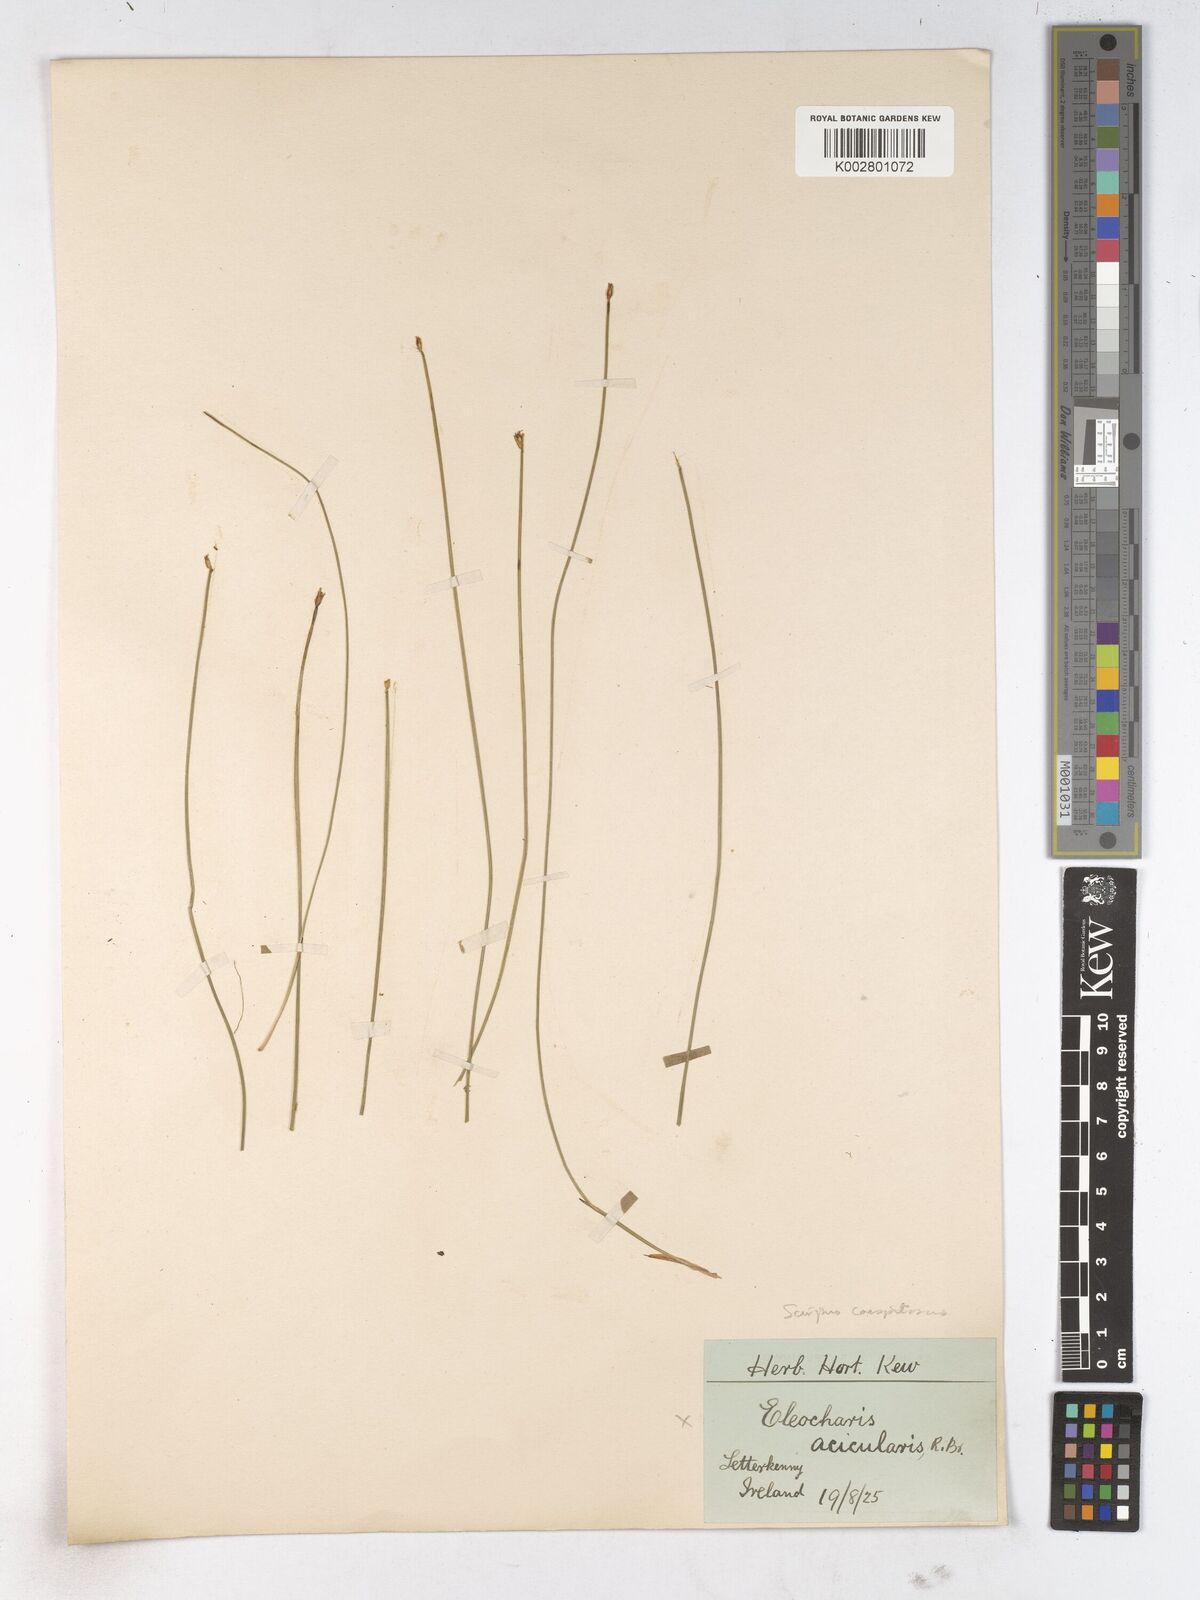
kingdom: Plantae
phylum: Tracheophyta
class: Liliopsida
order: Poales
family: Cyperaceae
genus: Trichophorum
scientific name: Trichophorum cespitosum
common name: Cespitose bulrush
